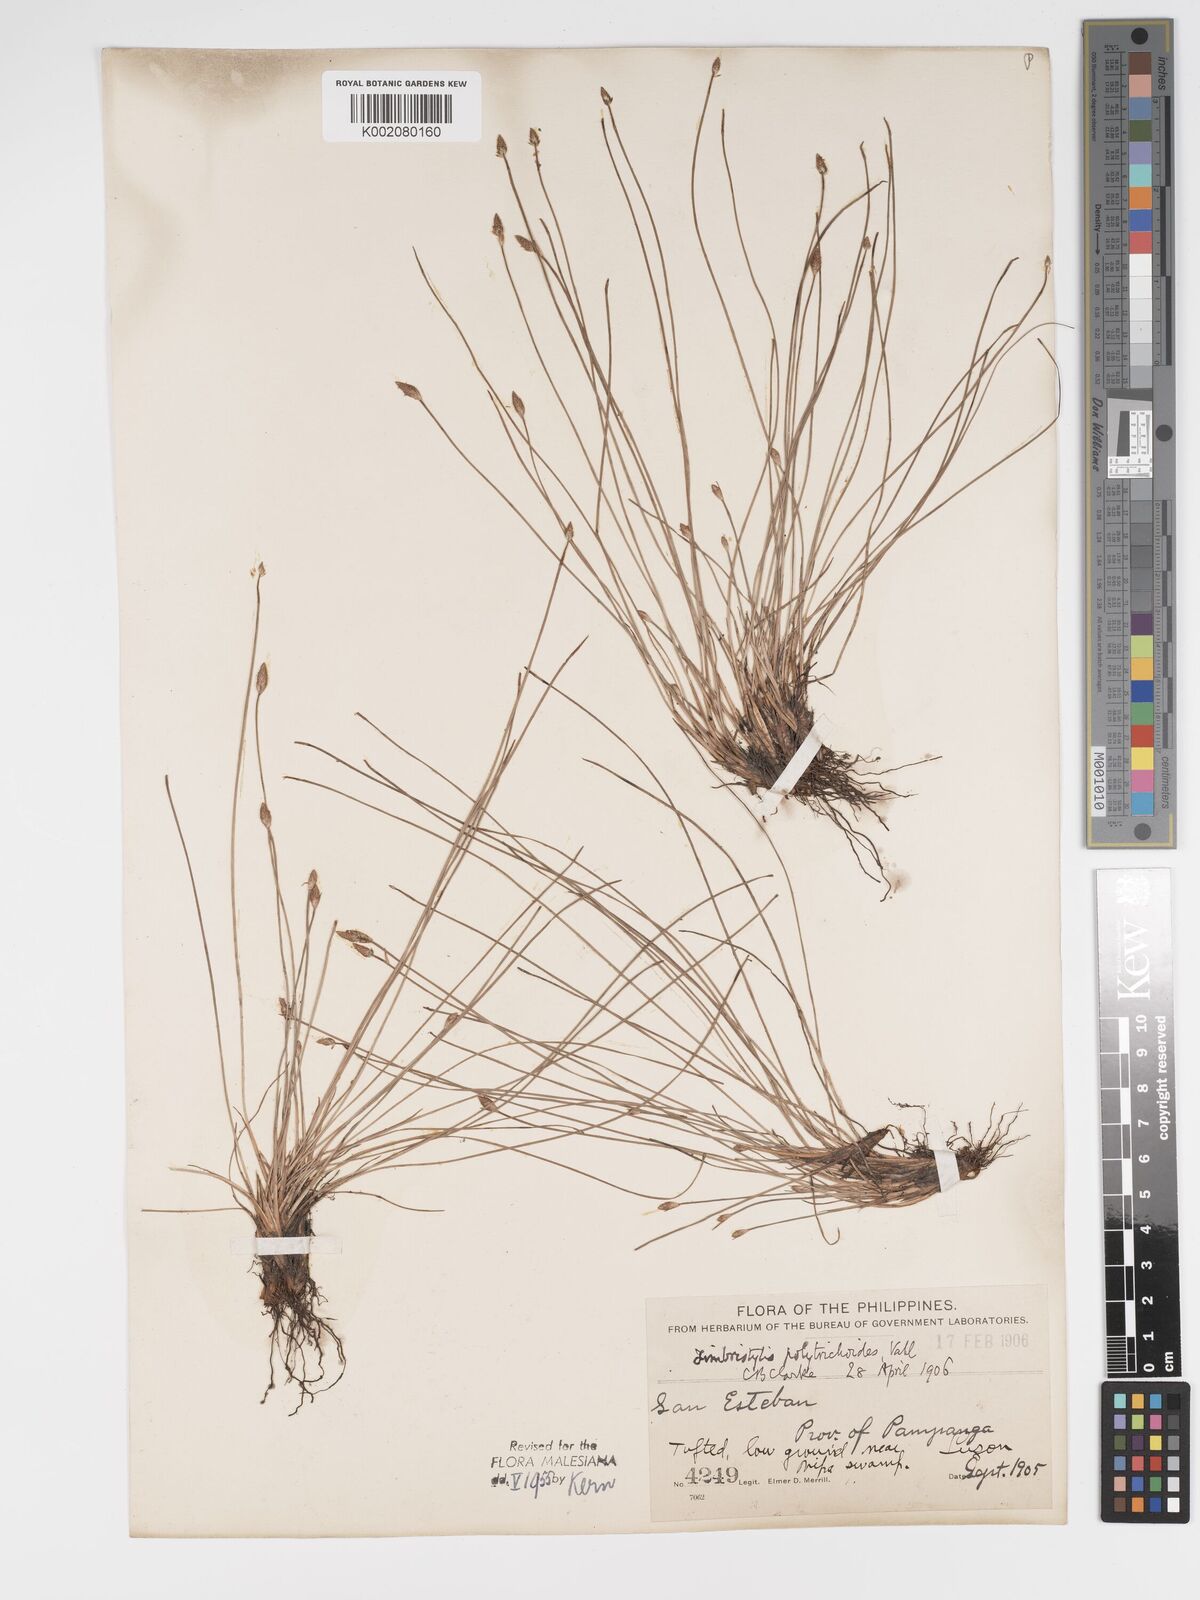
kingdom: Plantae
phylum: Tracheophyta
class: Liliopsida
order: Poales
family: Cyperaceae
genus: Fimbristylis
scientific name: Fimbristylis polytrichoides
